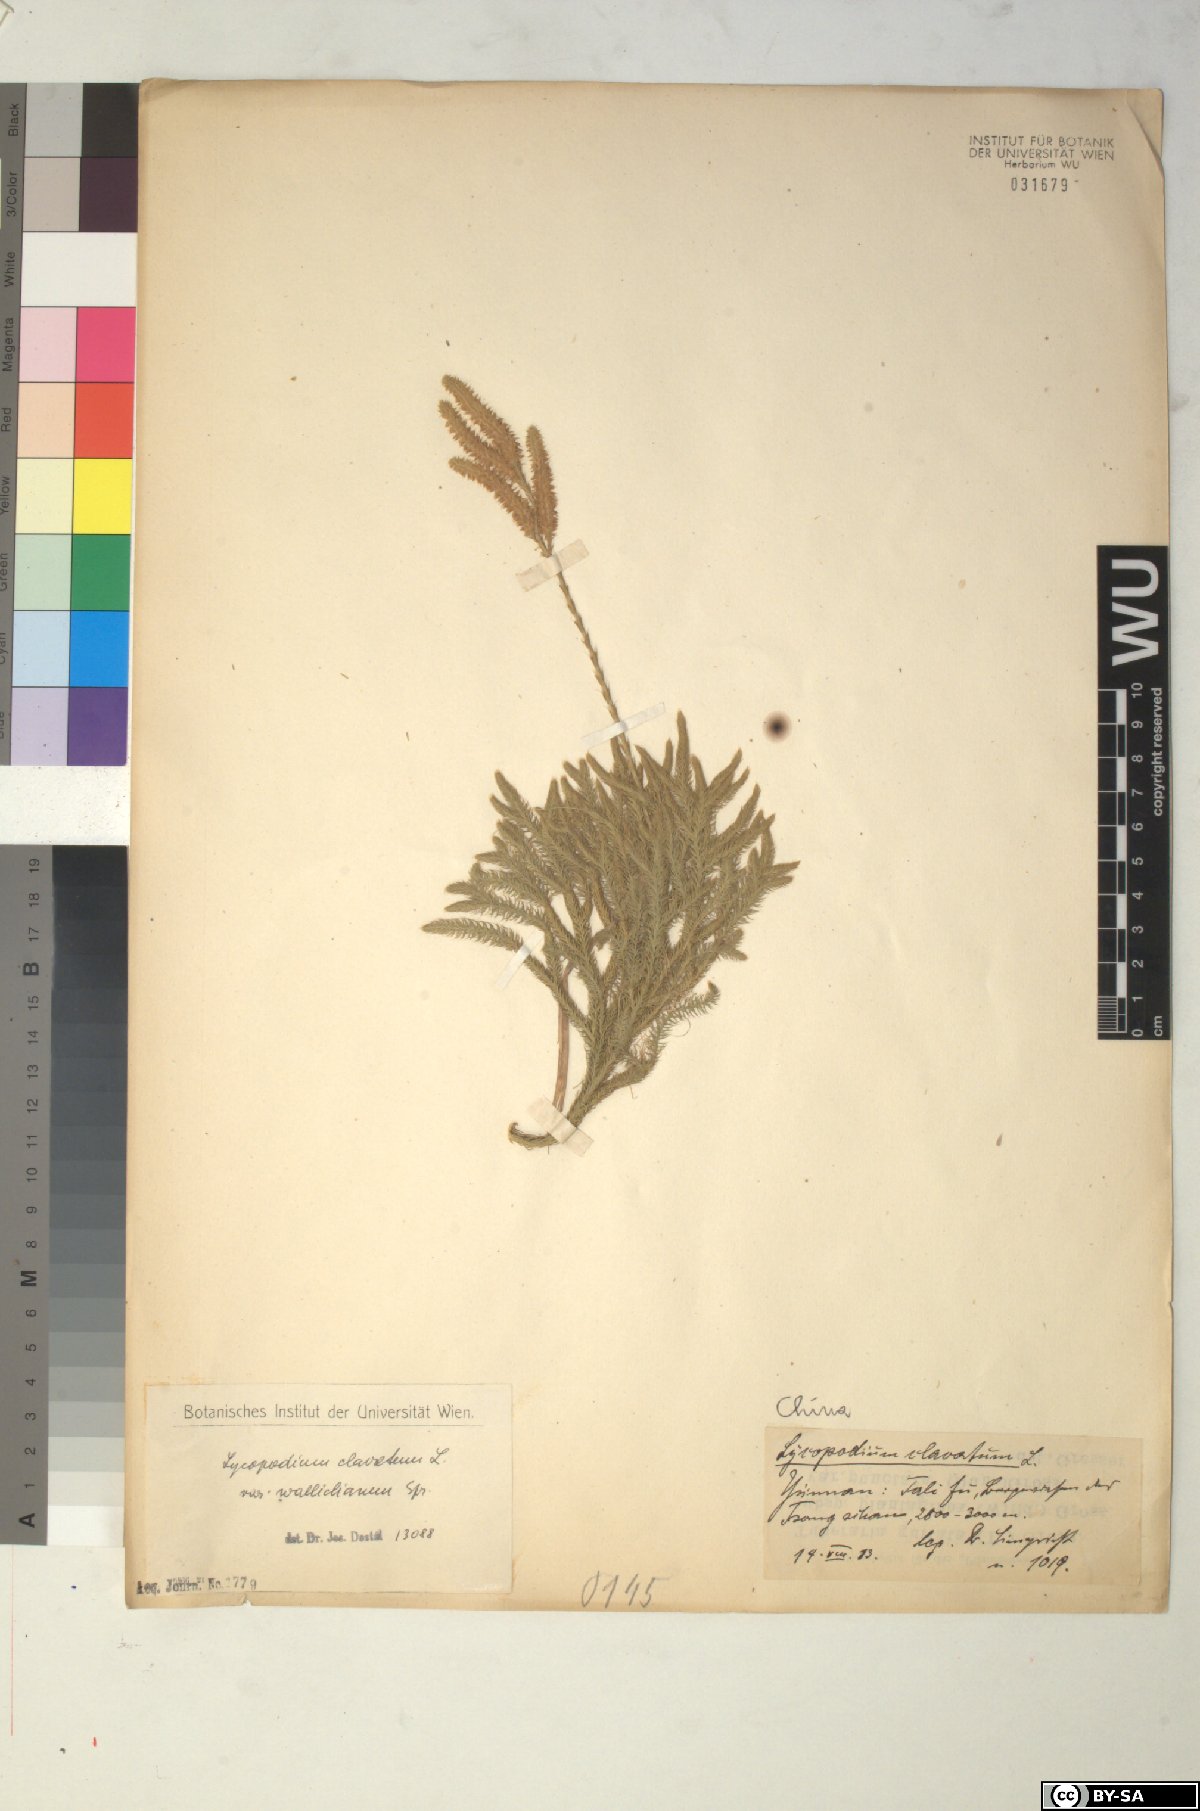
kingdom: Plantae
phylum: Tracheophyta
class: Lycopodiopsida
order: Lycopodiales
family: Lycopodiaceae
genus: Lycopodium
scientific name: Lycopodium japonicum
